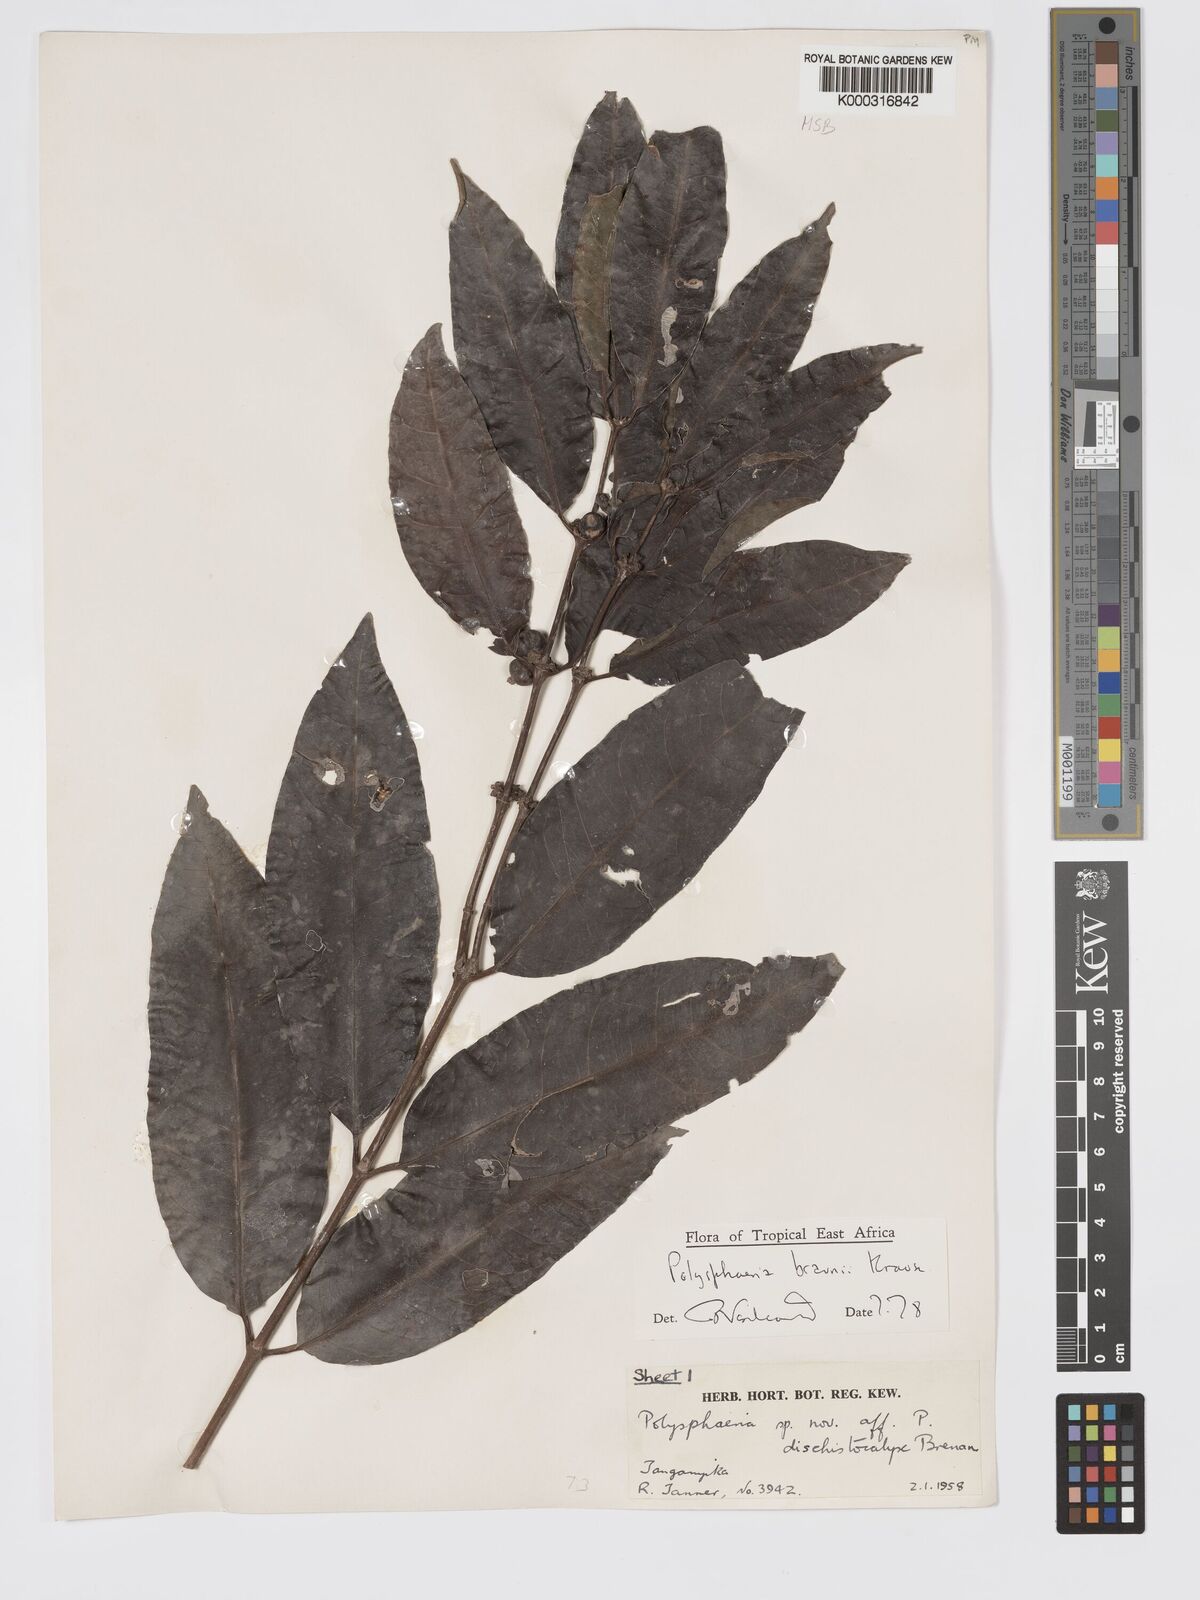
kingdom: Plantae
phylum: Tracheophyta
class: Magnoliopsida
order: Gentianales
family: Rubiaceae
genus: Polysphaeria
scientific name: Polysphaeria braunii
